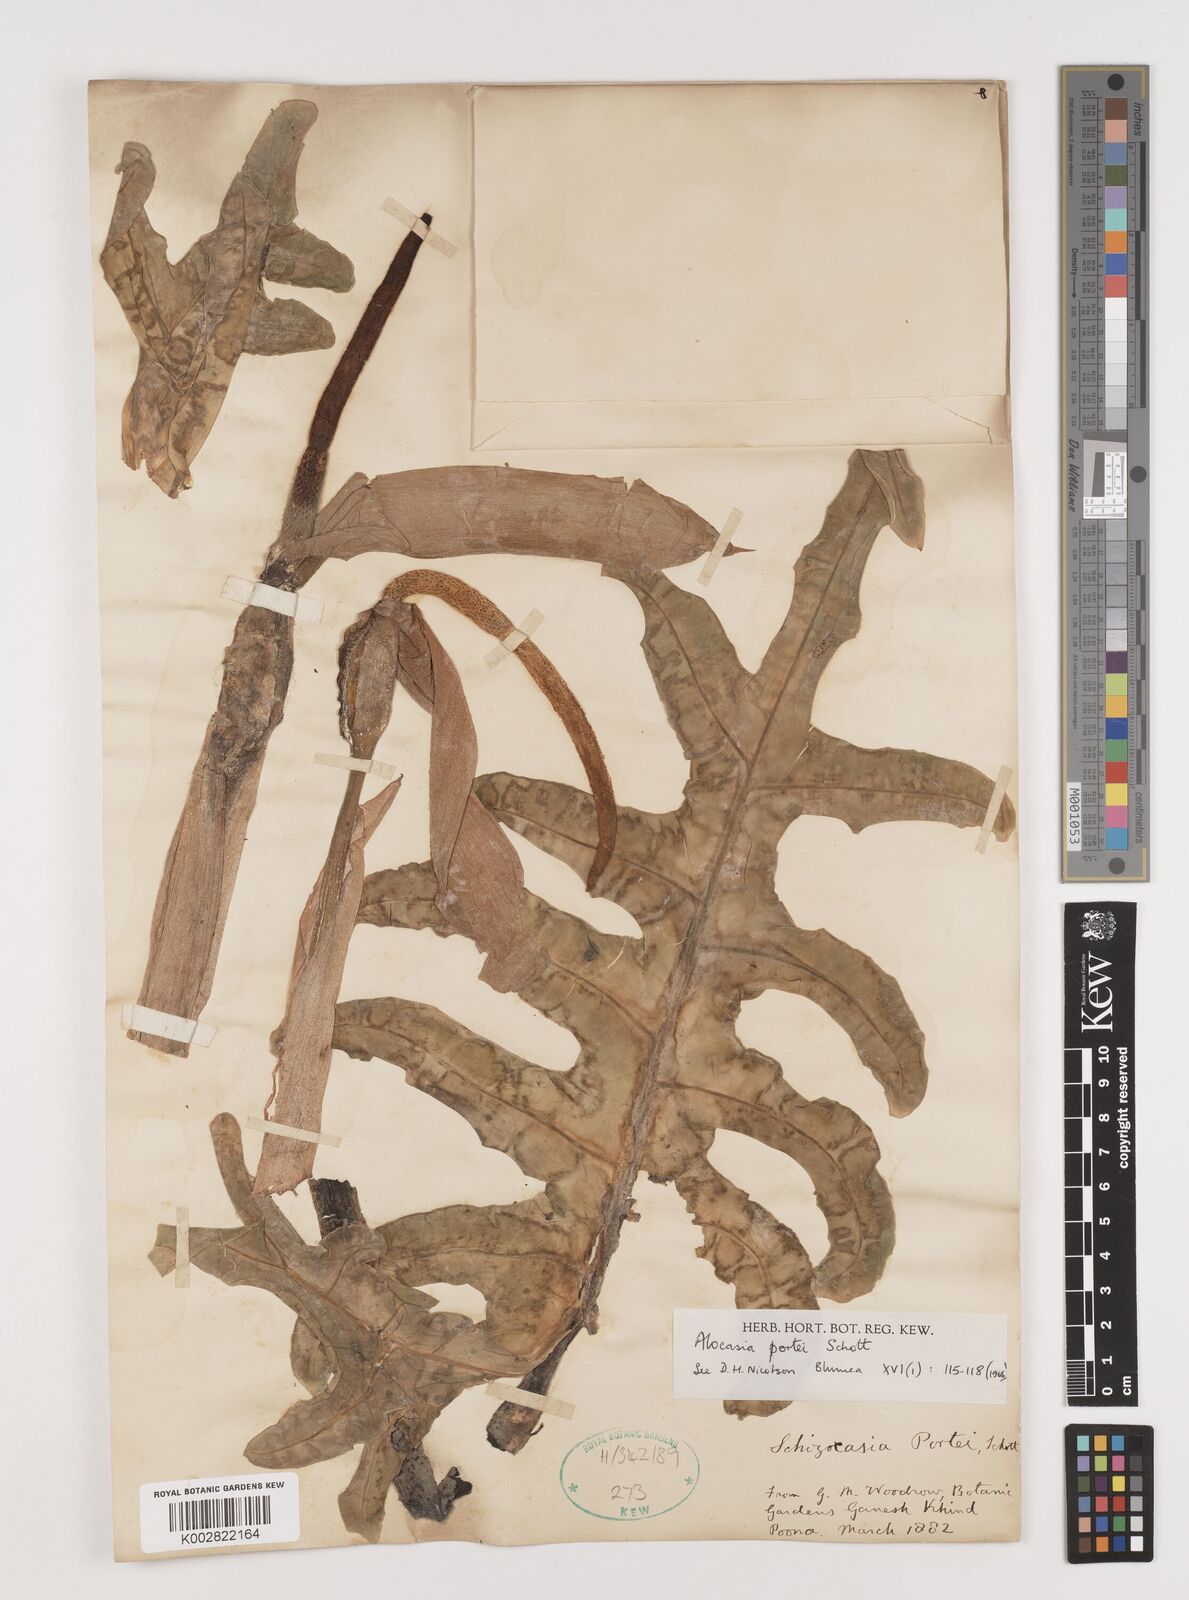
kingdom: Plantae
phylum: Tracheophyta
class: Liliopsida
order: Alismatales
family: Araceae
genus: Alocasia
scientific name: Alocasia portei
